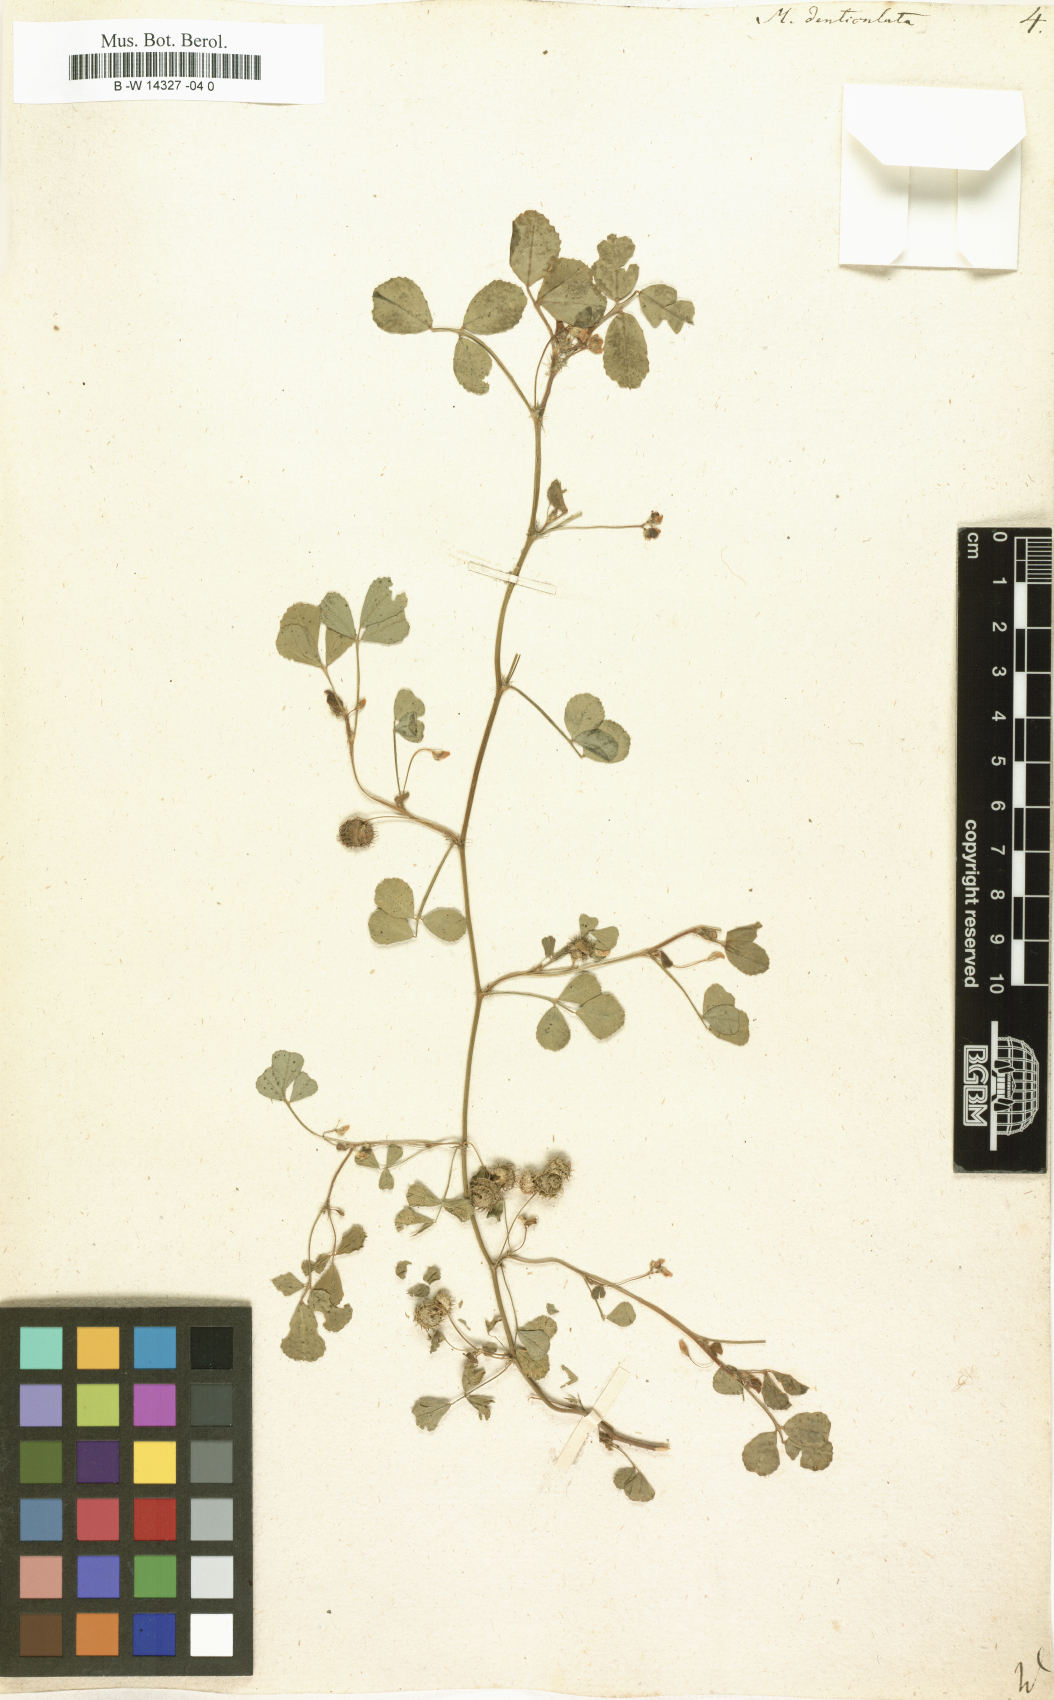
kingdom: Plantae
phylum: Tracheophyta
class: Magnoliopsida
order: Fabales
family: Fabaceae
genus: Medicago
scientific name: Medicago polymorpha
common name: Burclover
